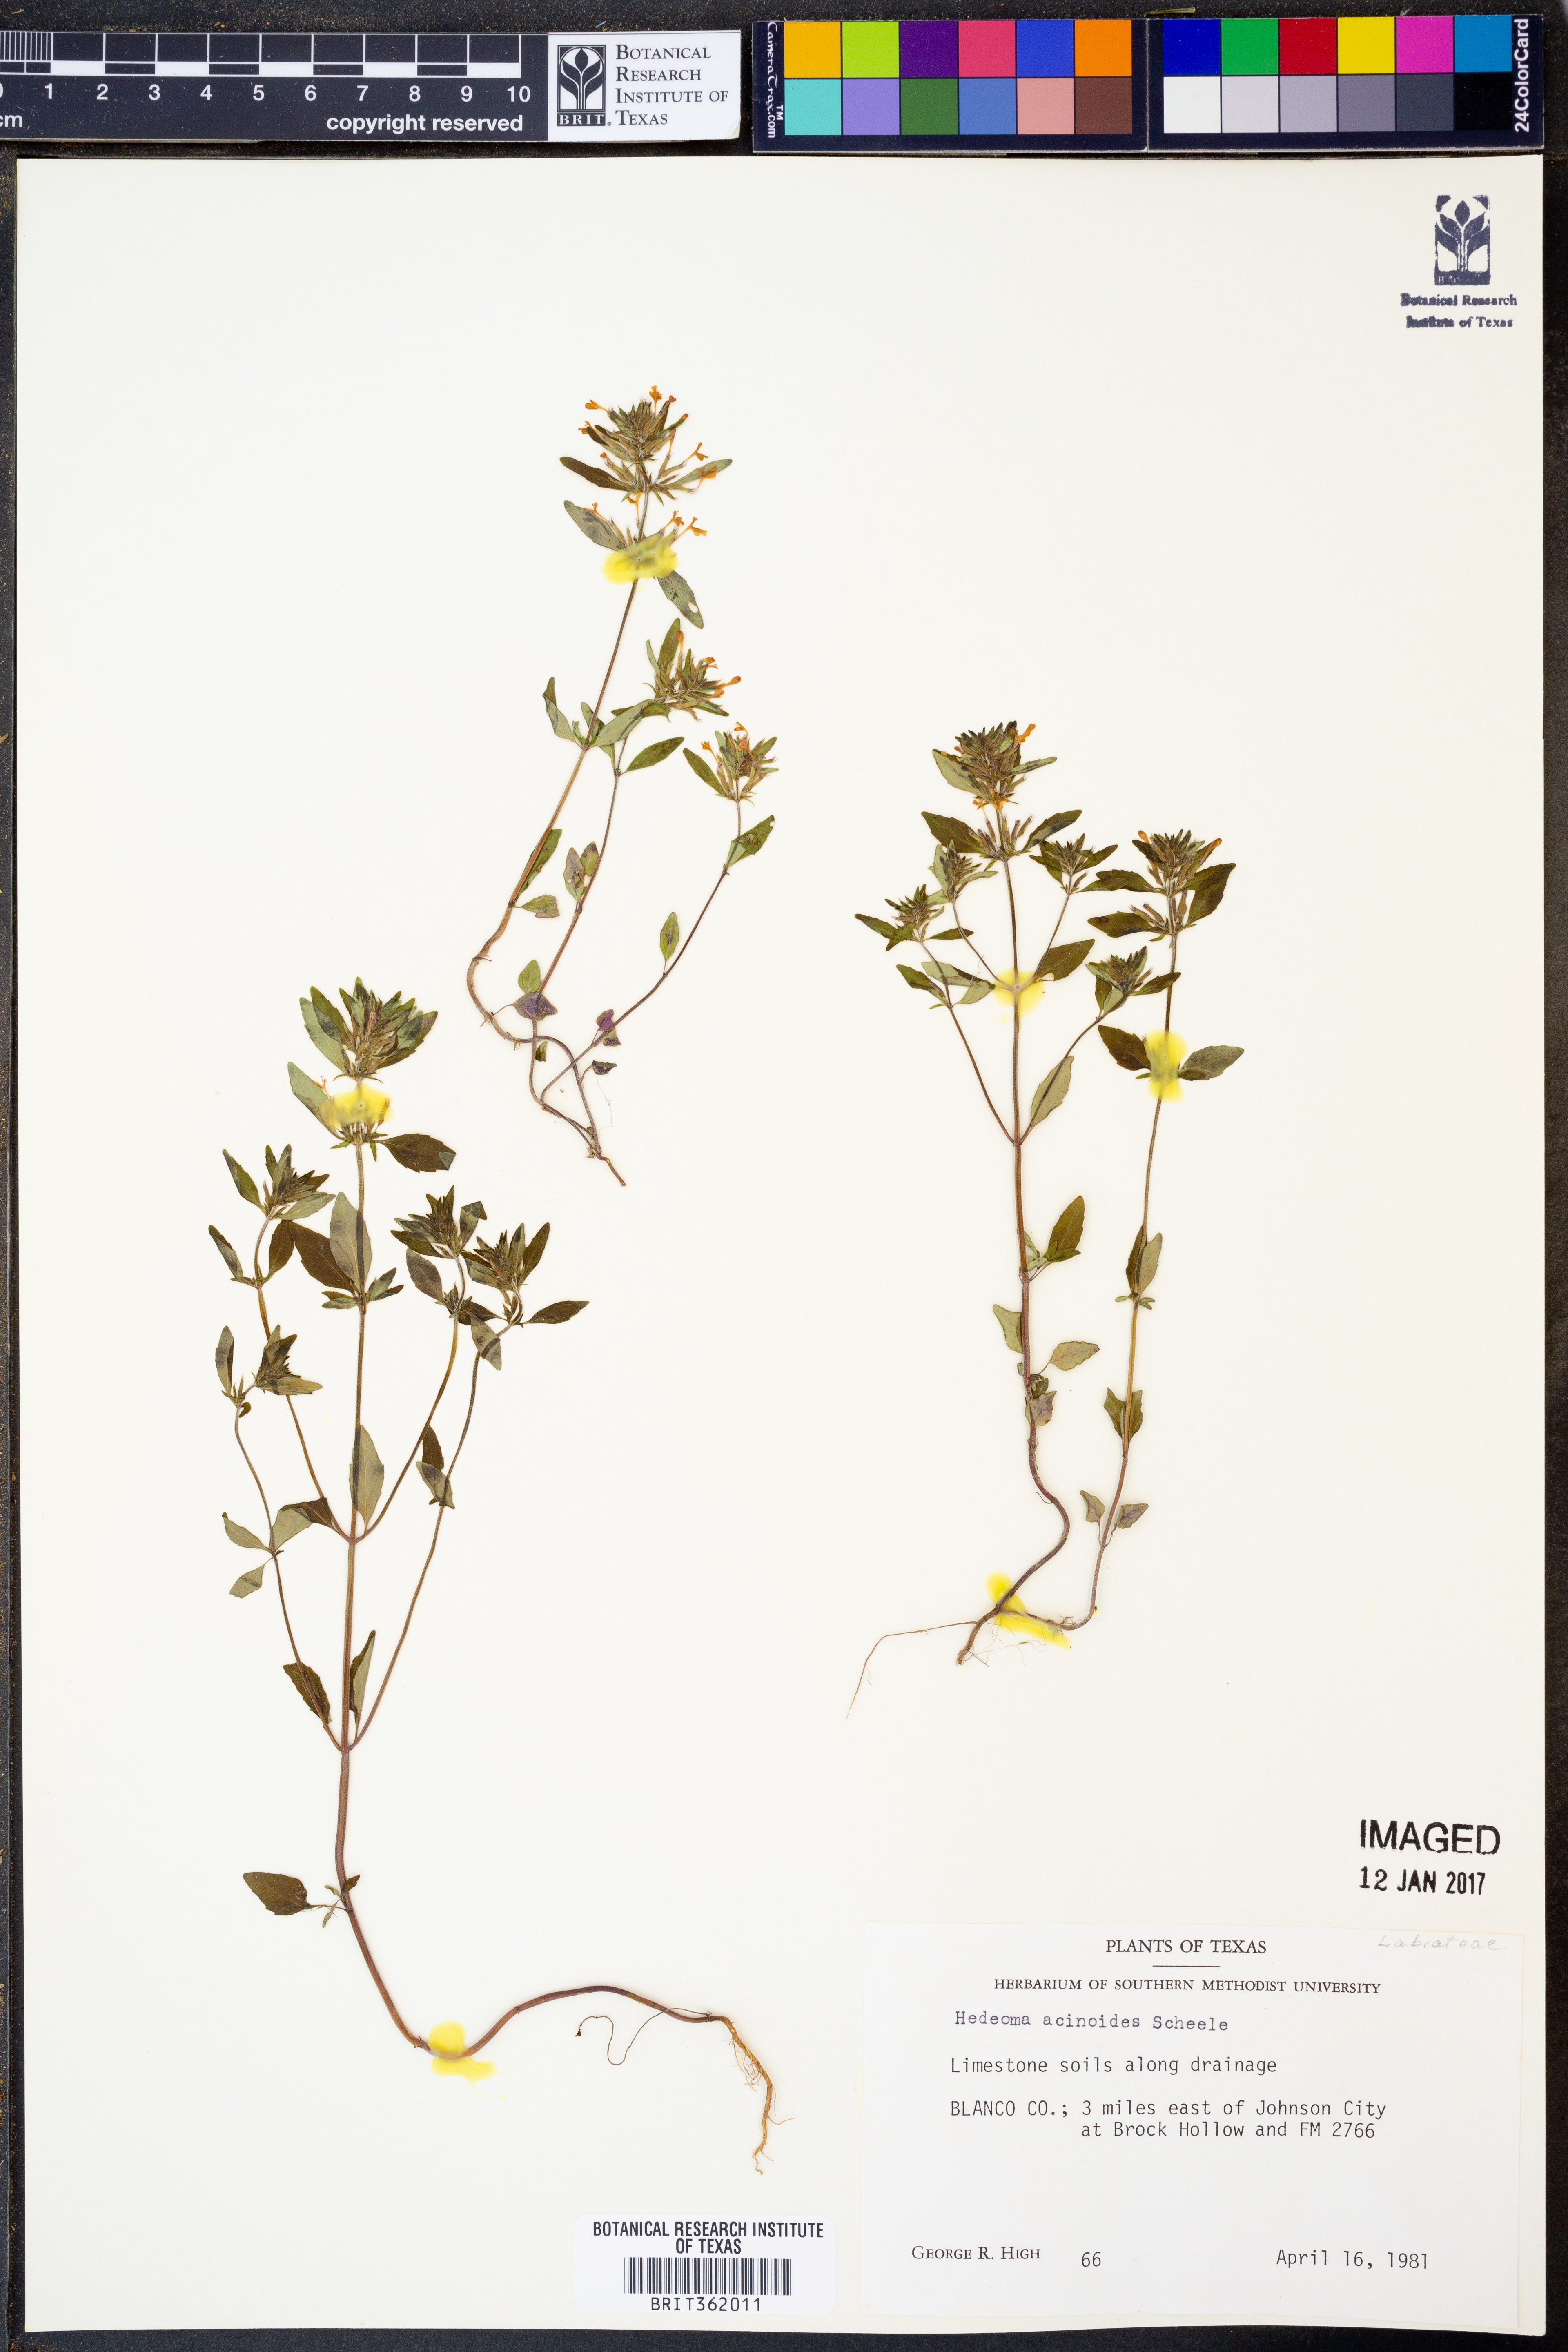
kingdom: Plantae
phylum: Tracheophyta
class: Magnoliopsida
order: Lamiales
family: Lamiaceae
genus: Hedeoma
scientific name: Hedeoma acinoides
